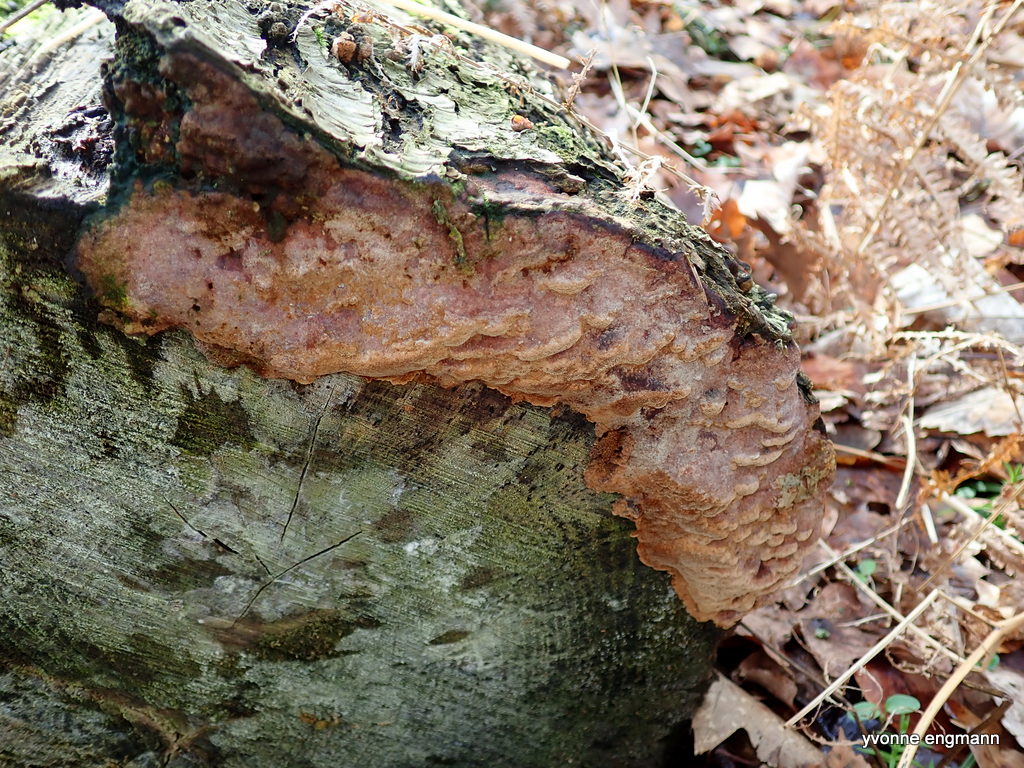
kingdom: Fungi
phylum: Basidiomycota
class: Agaricomycetes
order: Hymenochaetales
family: Hymenochaetaceae
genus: Fuscoporia
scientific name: Fuscoporia ferrea
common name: skorpe-ildporesvamp
